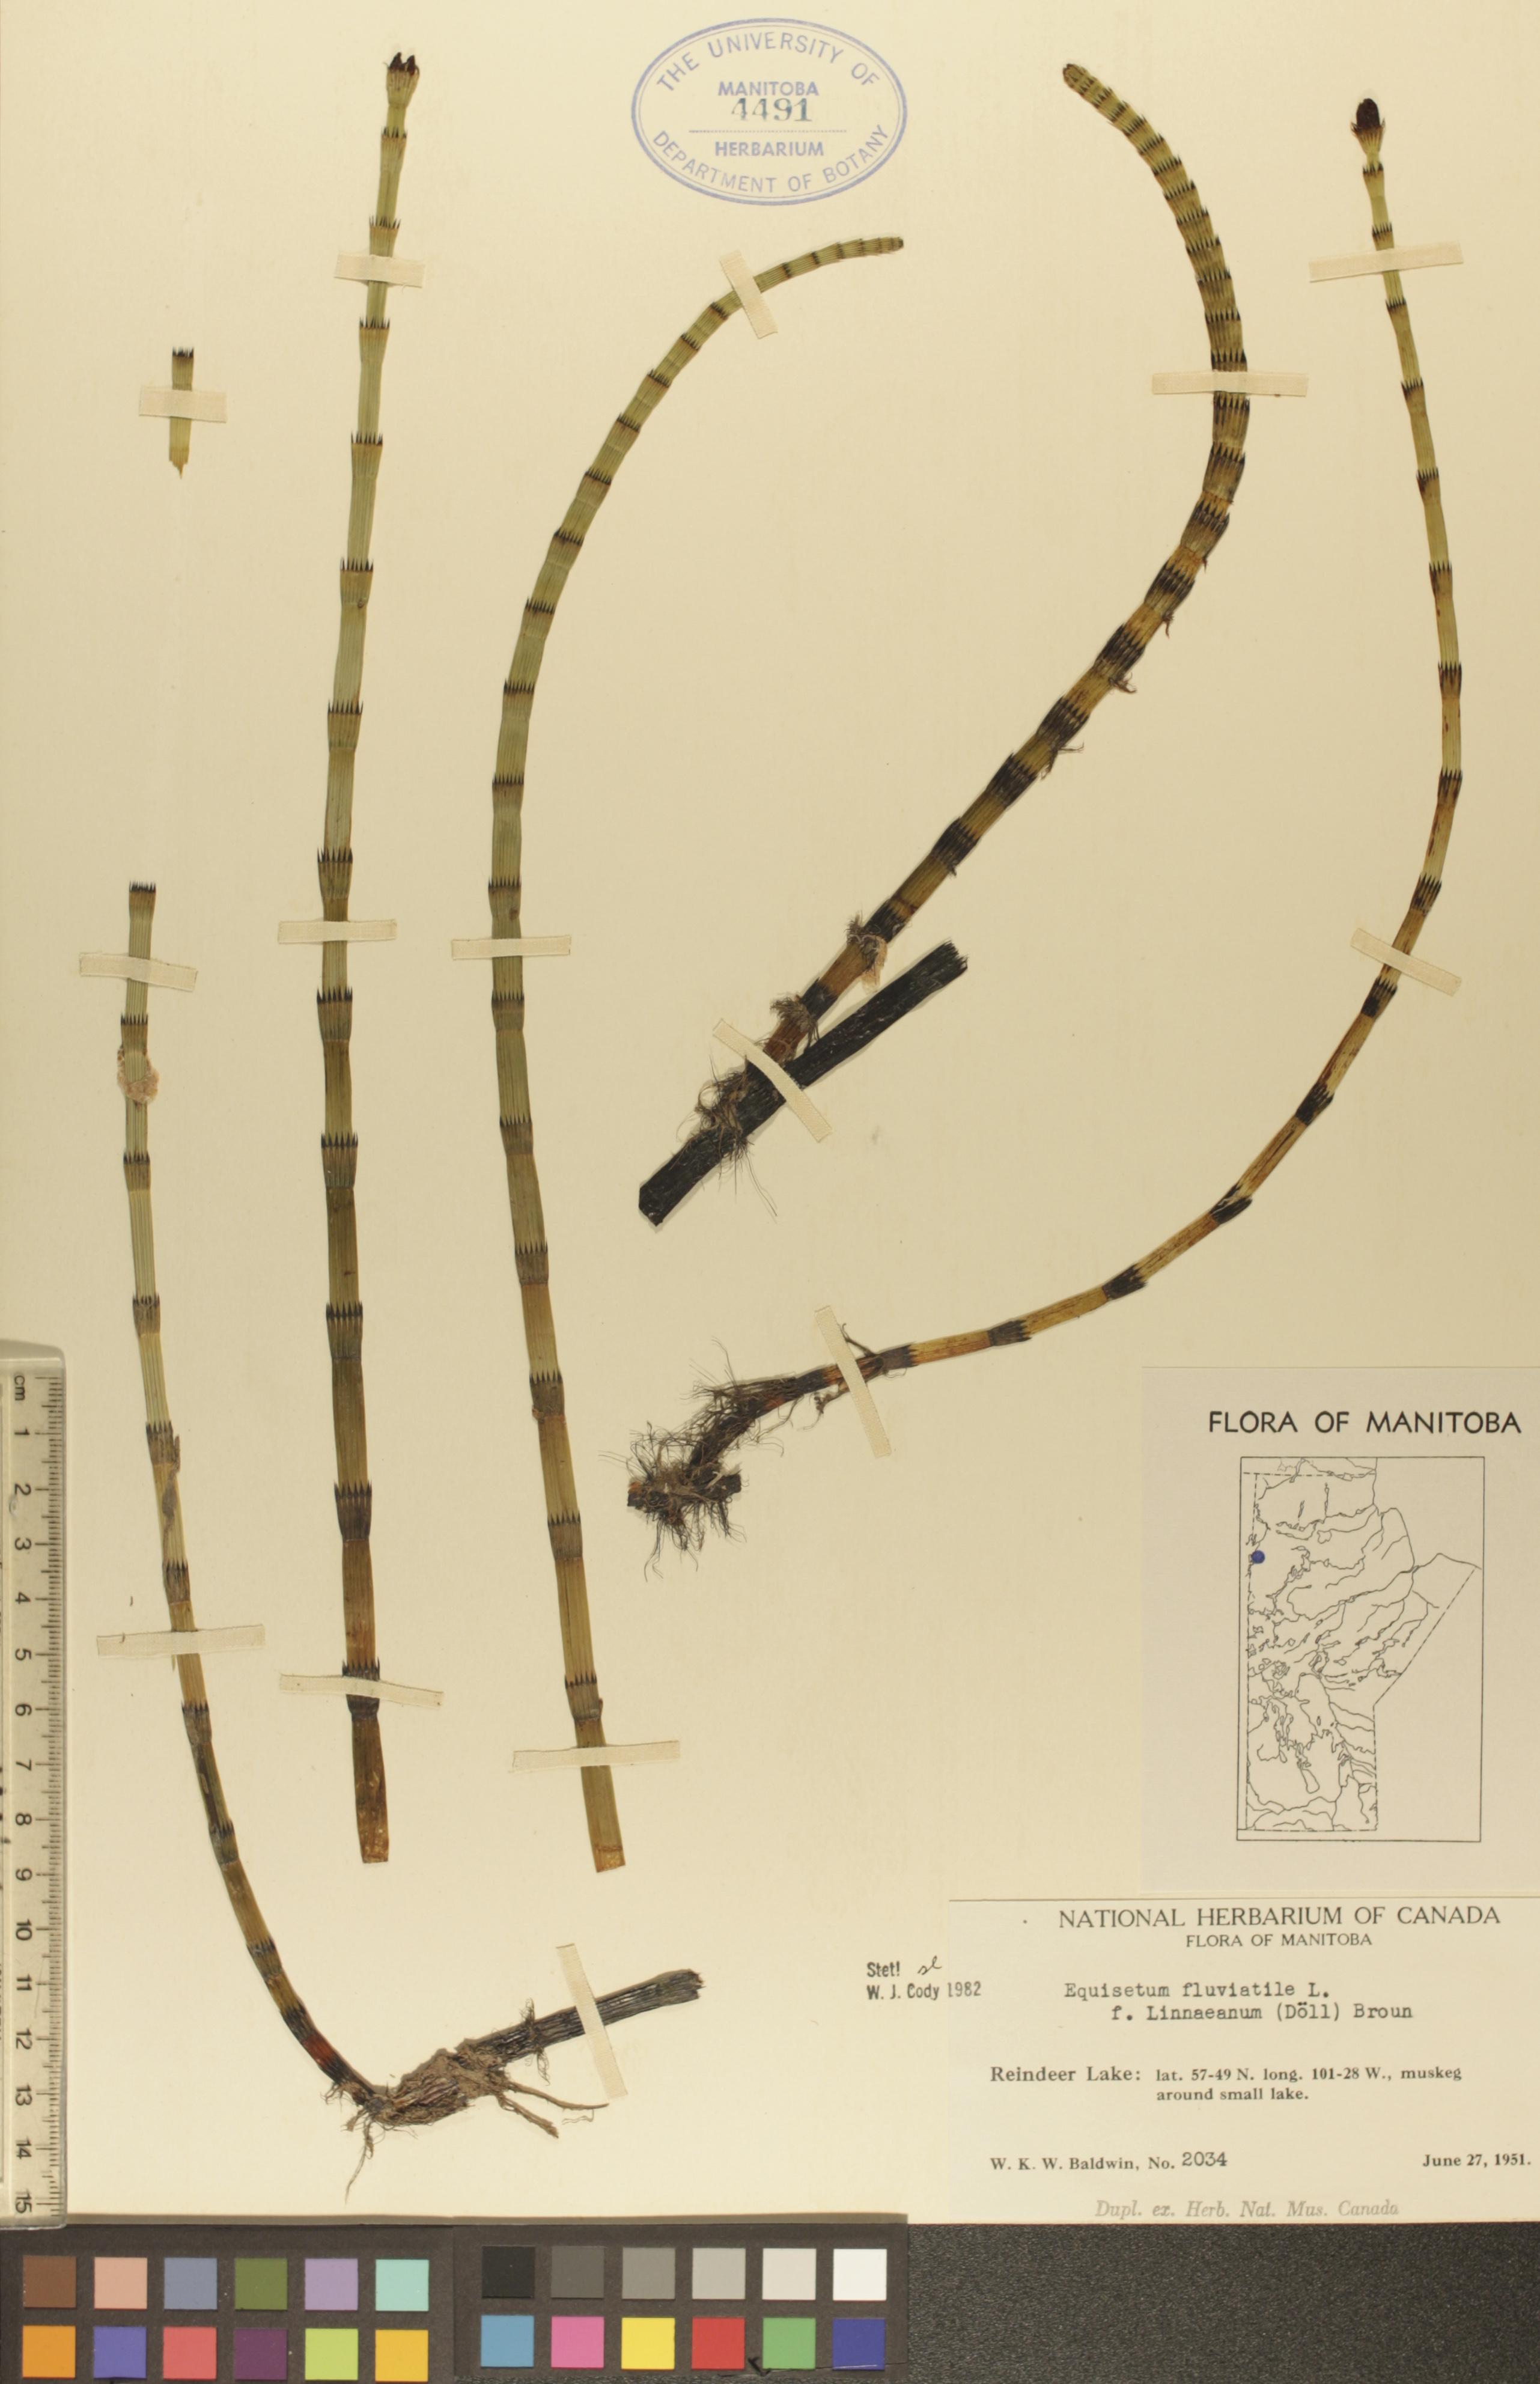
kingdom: Plantae
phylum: Tracheophyta
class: Polypodiopsida
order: Equisetales
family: Equisetaceae
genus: Equisetum
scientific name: Equisetum fluviatile
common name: Water horsetail
